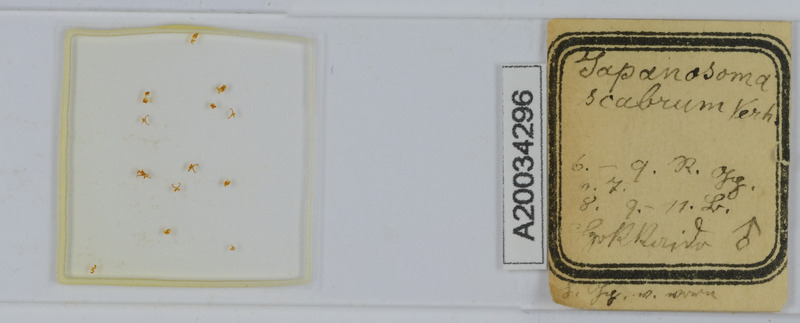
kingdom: Animalia
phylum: Arthropoda
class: Diplopoda
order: Chordeumatida
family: Conotylidae
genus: Japanosoma
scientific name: Japanosoma scabrum
